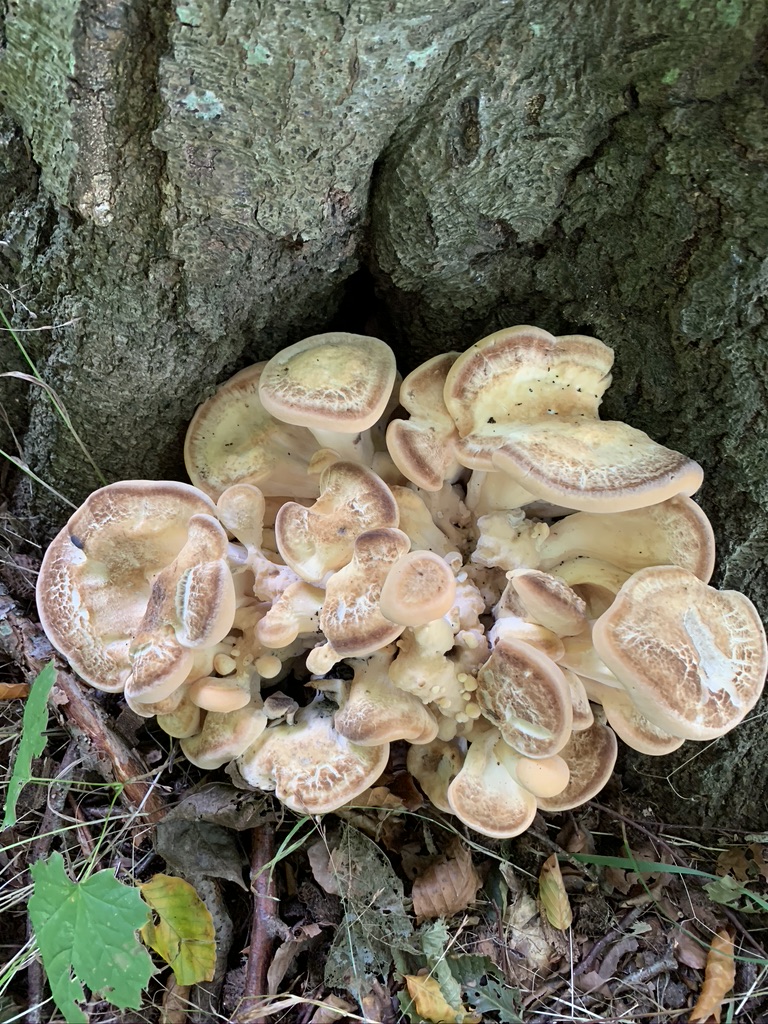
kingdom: Fungi
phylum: Basidiomycota
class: Agaricomycetes
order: Polyporales
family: Meripilaceae
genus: Meripilus
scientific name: Meripilus giganteus
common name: kæmpeporesvamp
